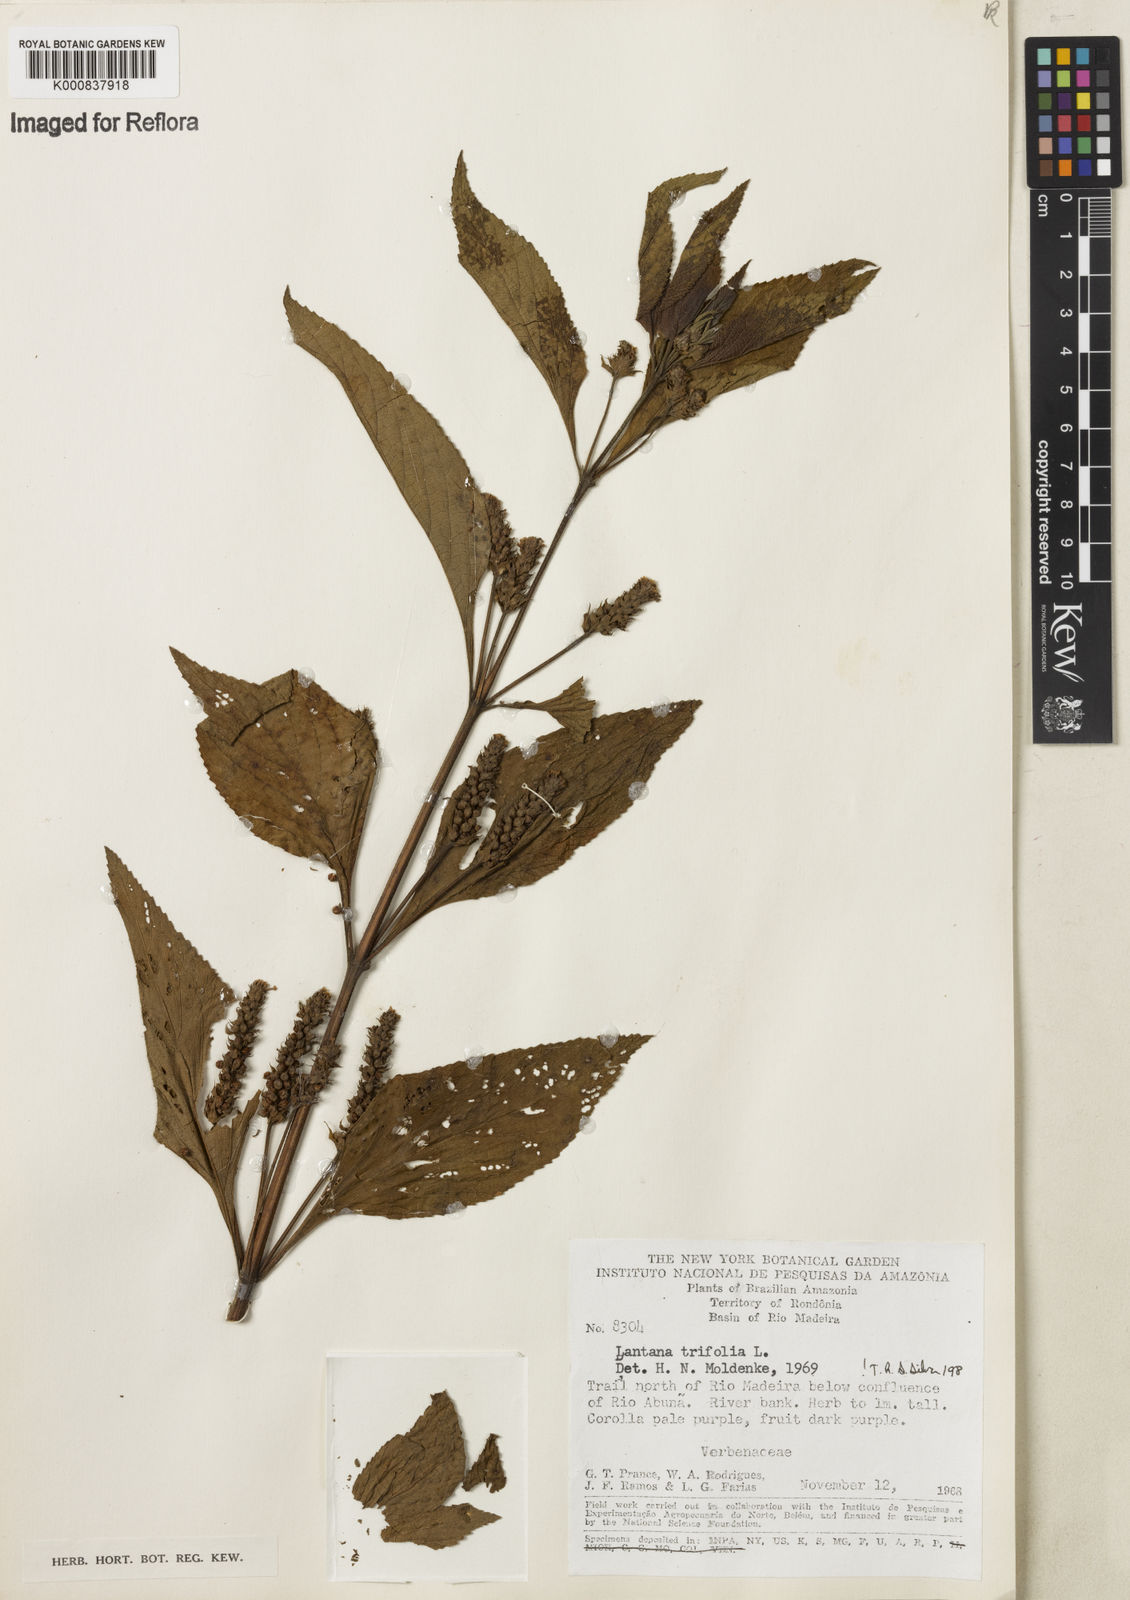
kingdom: Plantae
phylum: Tracheophyta
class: Magnoliopsida
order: Lamiales
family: Verbenaceae
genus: Lantana
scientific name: Lantana trifolia
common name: Sweet-sage
